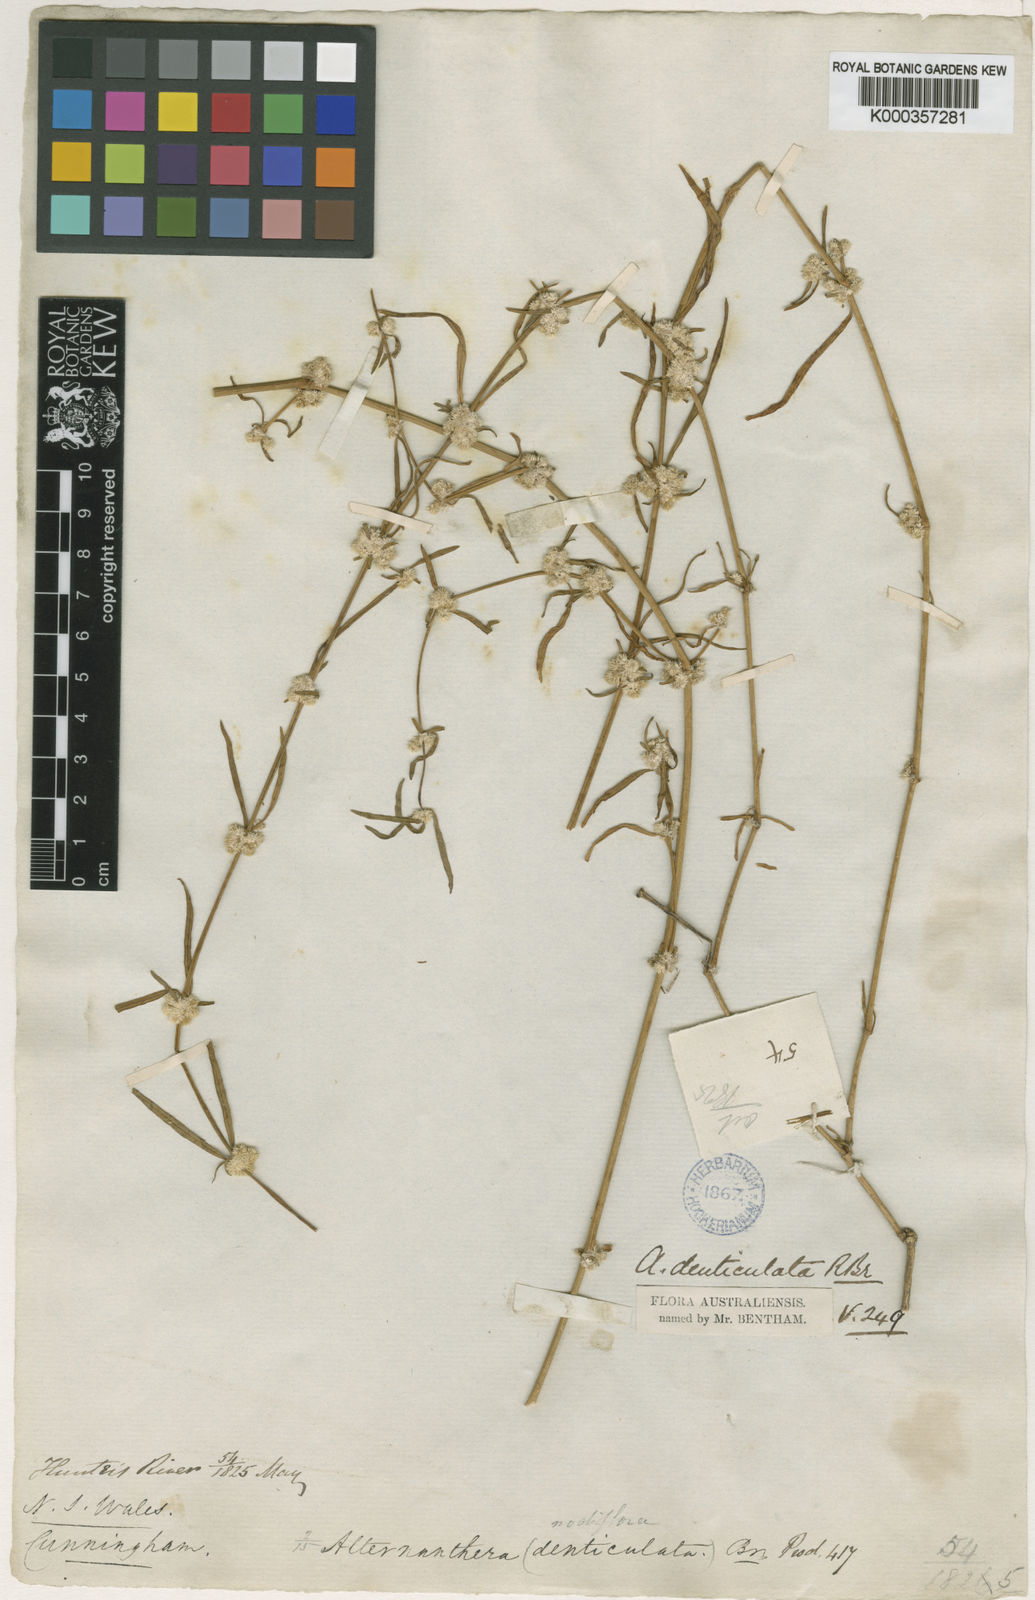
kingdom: Plantae
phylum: Tracheophyta
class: Magnoliopsida
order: Caryophyllales
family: Amaranthaceae
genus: Alternanthera
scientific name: Alternanthera denticulata
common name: Lesser joyweed
